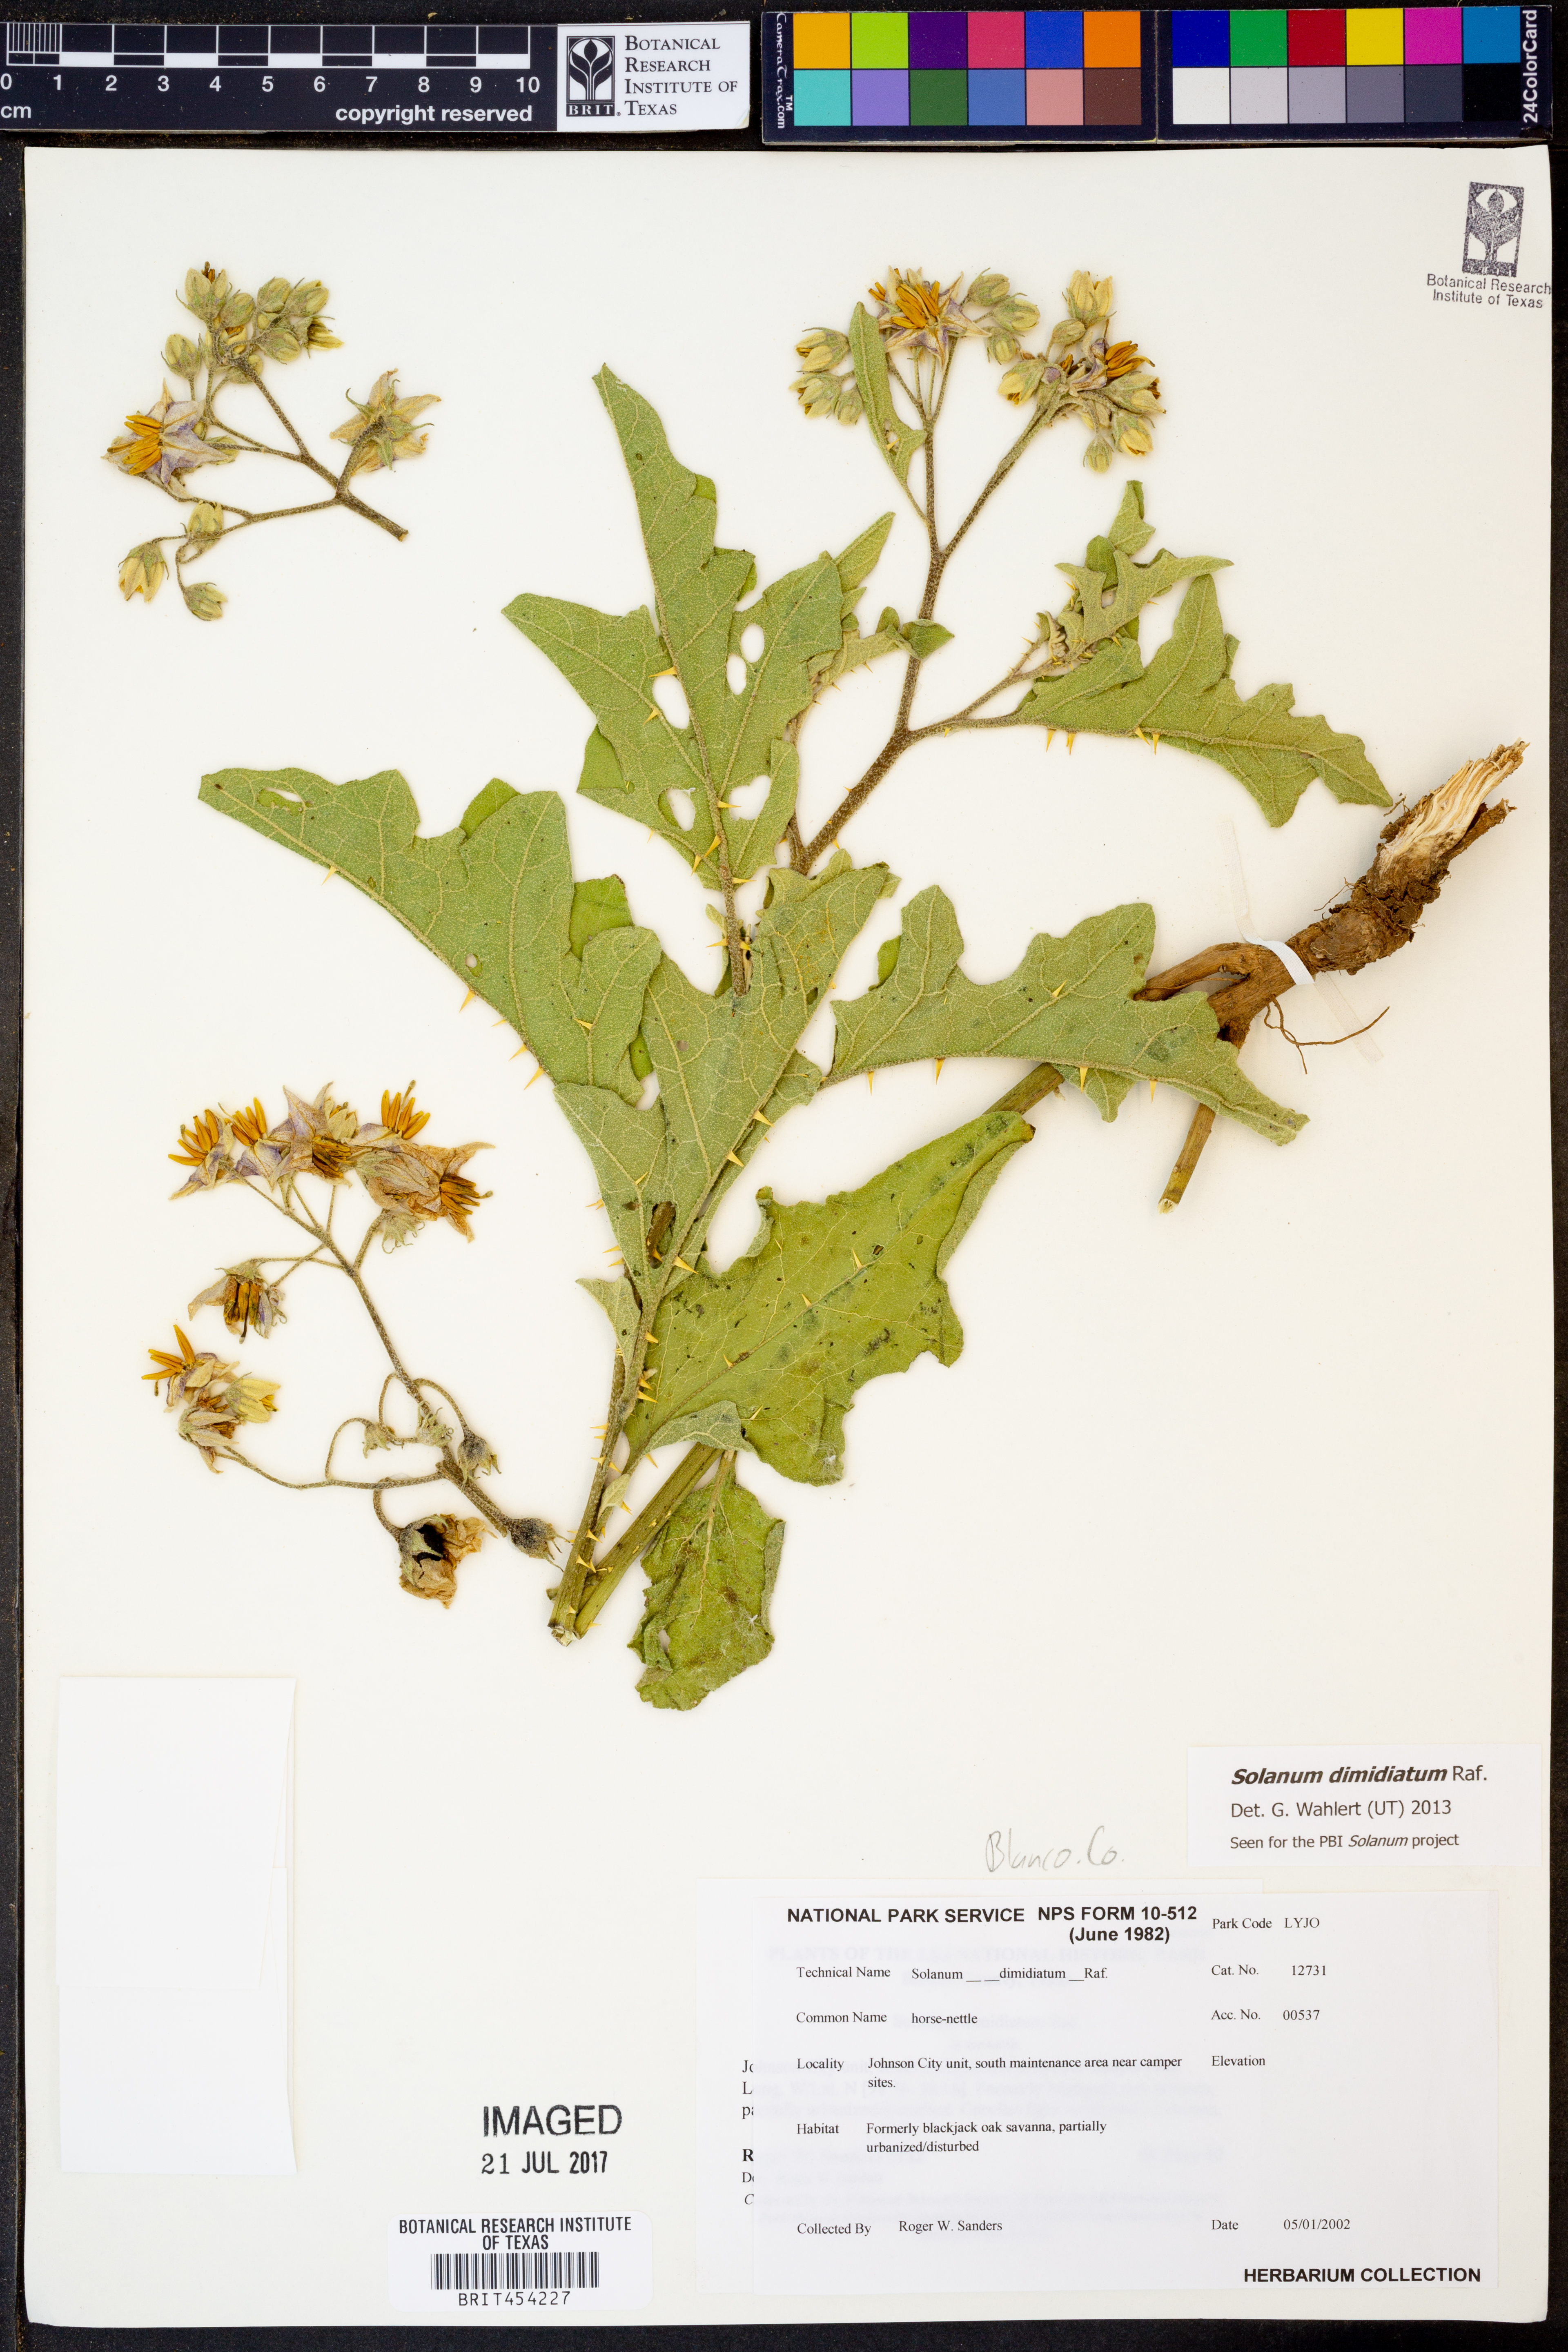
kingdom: Plantae
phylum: Tracheophyta
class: Magnoliopsida
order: Solanales
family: Solanaceae
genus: Solanum
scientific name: Solanum dimidiatum
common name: Carolina horse-nettle
